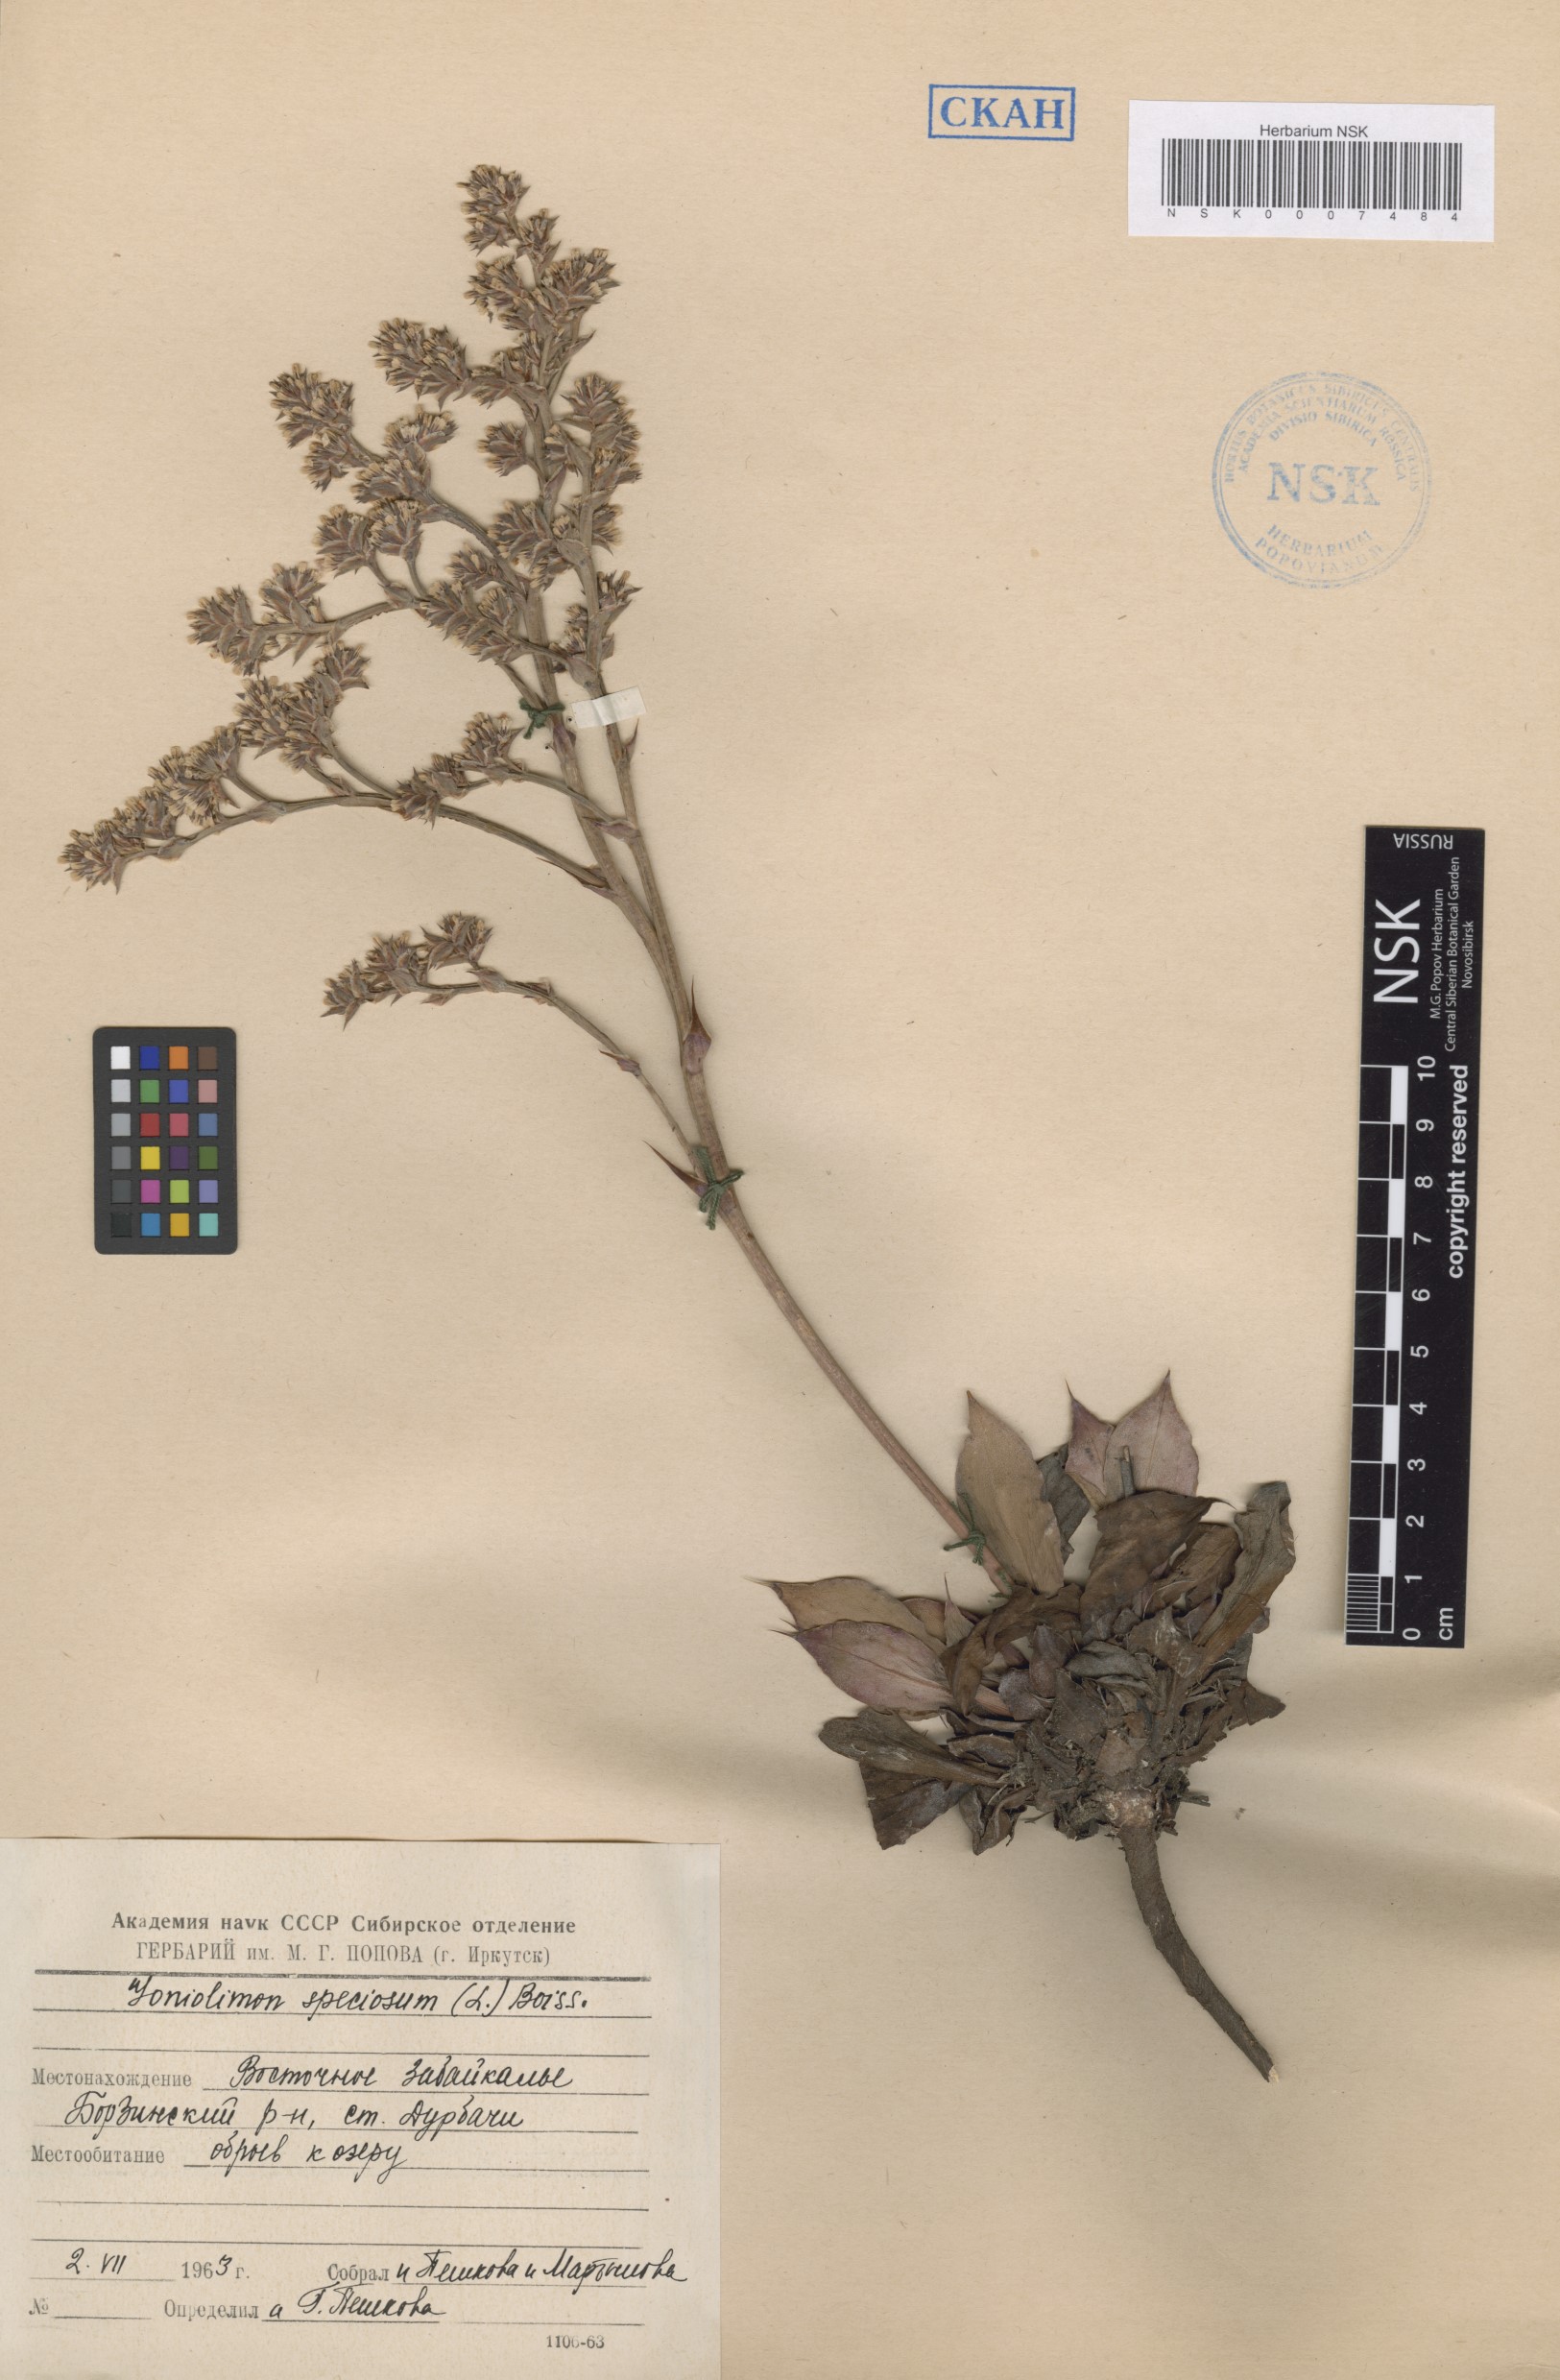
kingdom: Plantae
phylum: Tracheophyta
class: Magnoliopsida
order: Caryophyllales
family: Plumbaginaceae
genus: Goniolimon
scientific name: Goniolimon speciosum
